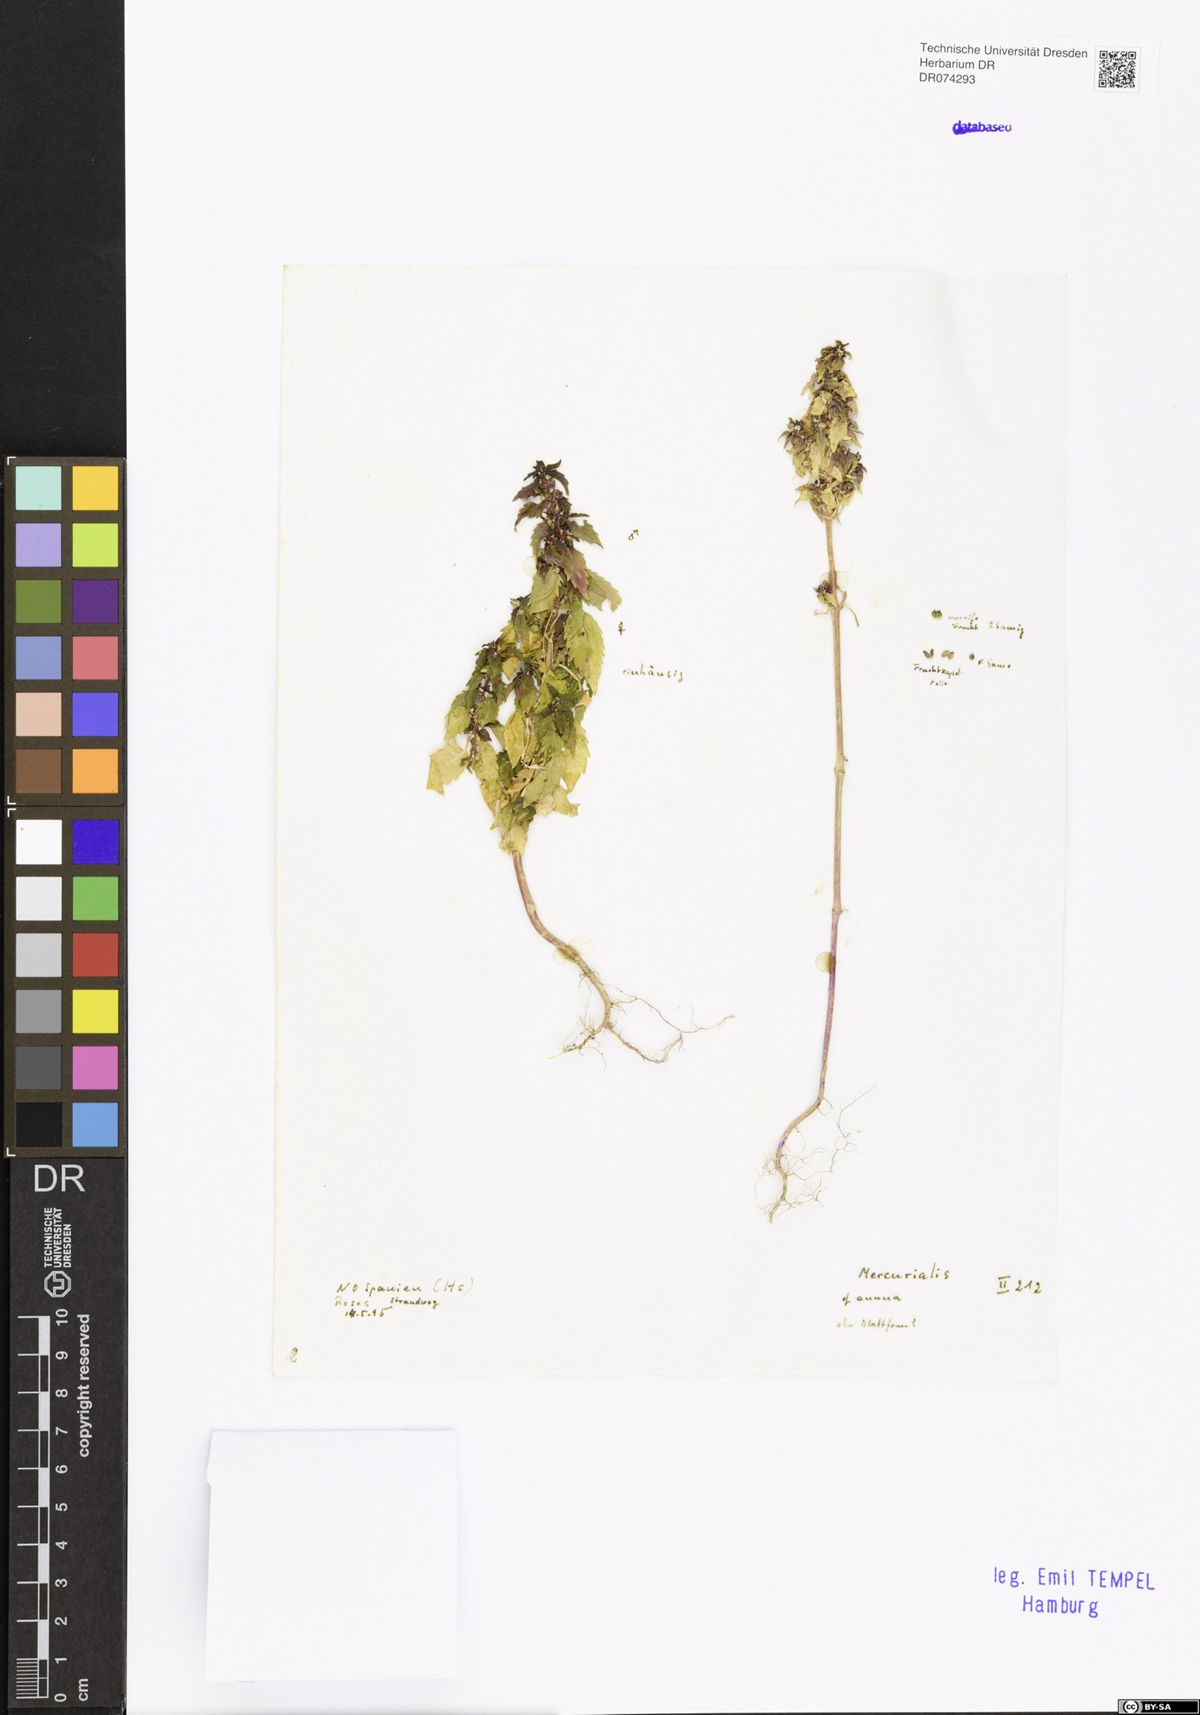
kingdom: Plantae
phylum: Tracheophyta
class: Magnoliopsida
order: Malpighiales
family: Euphorbiaceae
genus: Mercurialis
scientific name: Mercurialis annua
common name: Annual mercury
